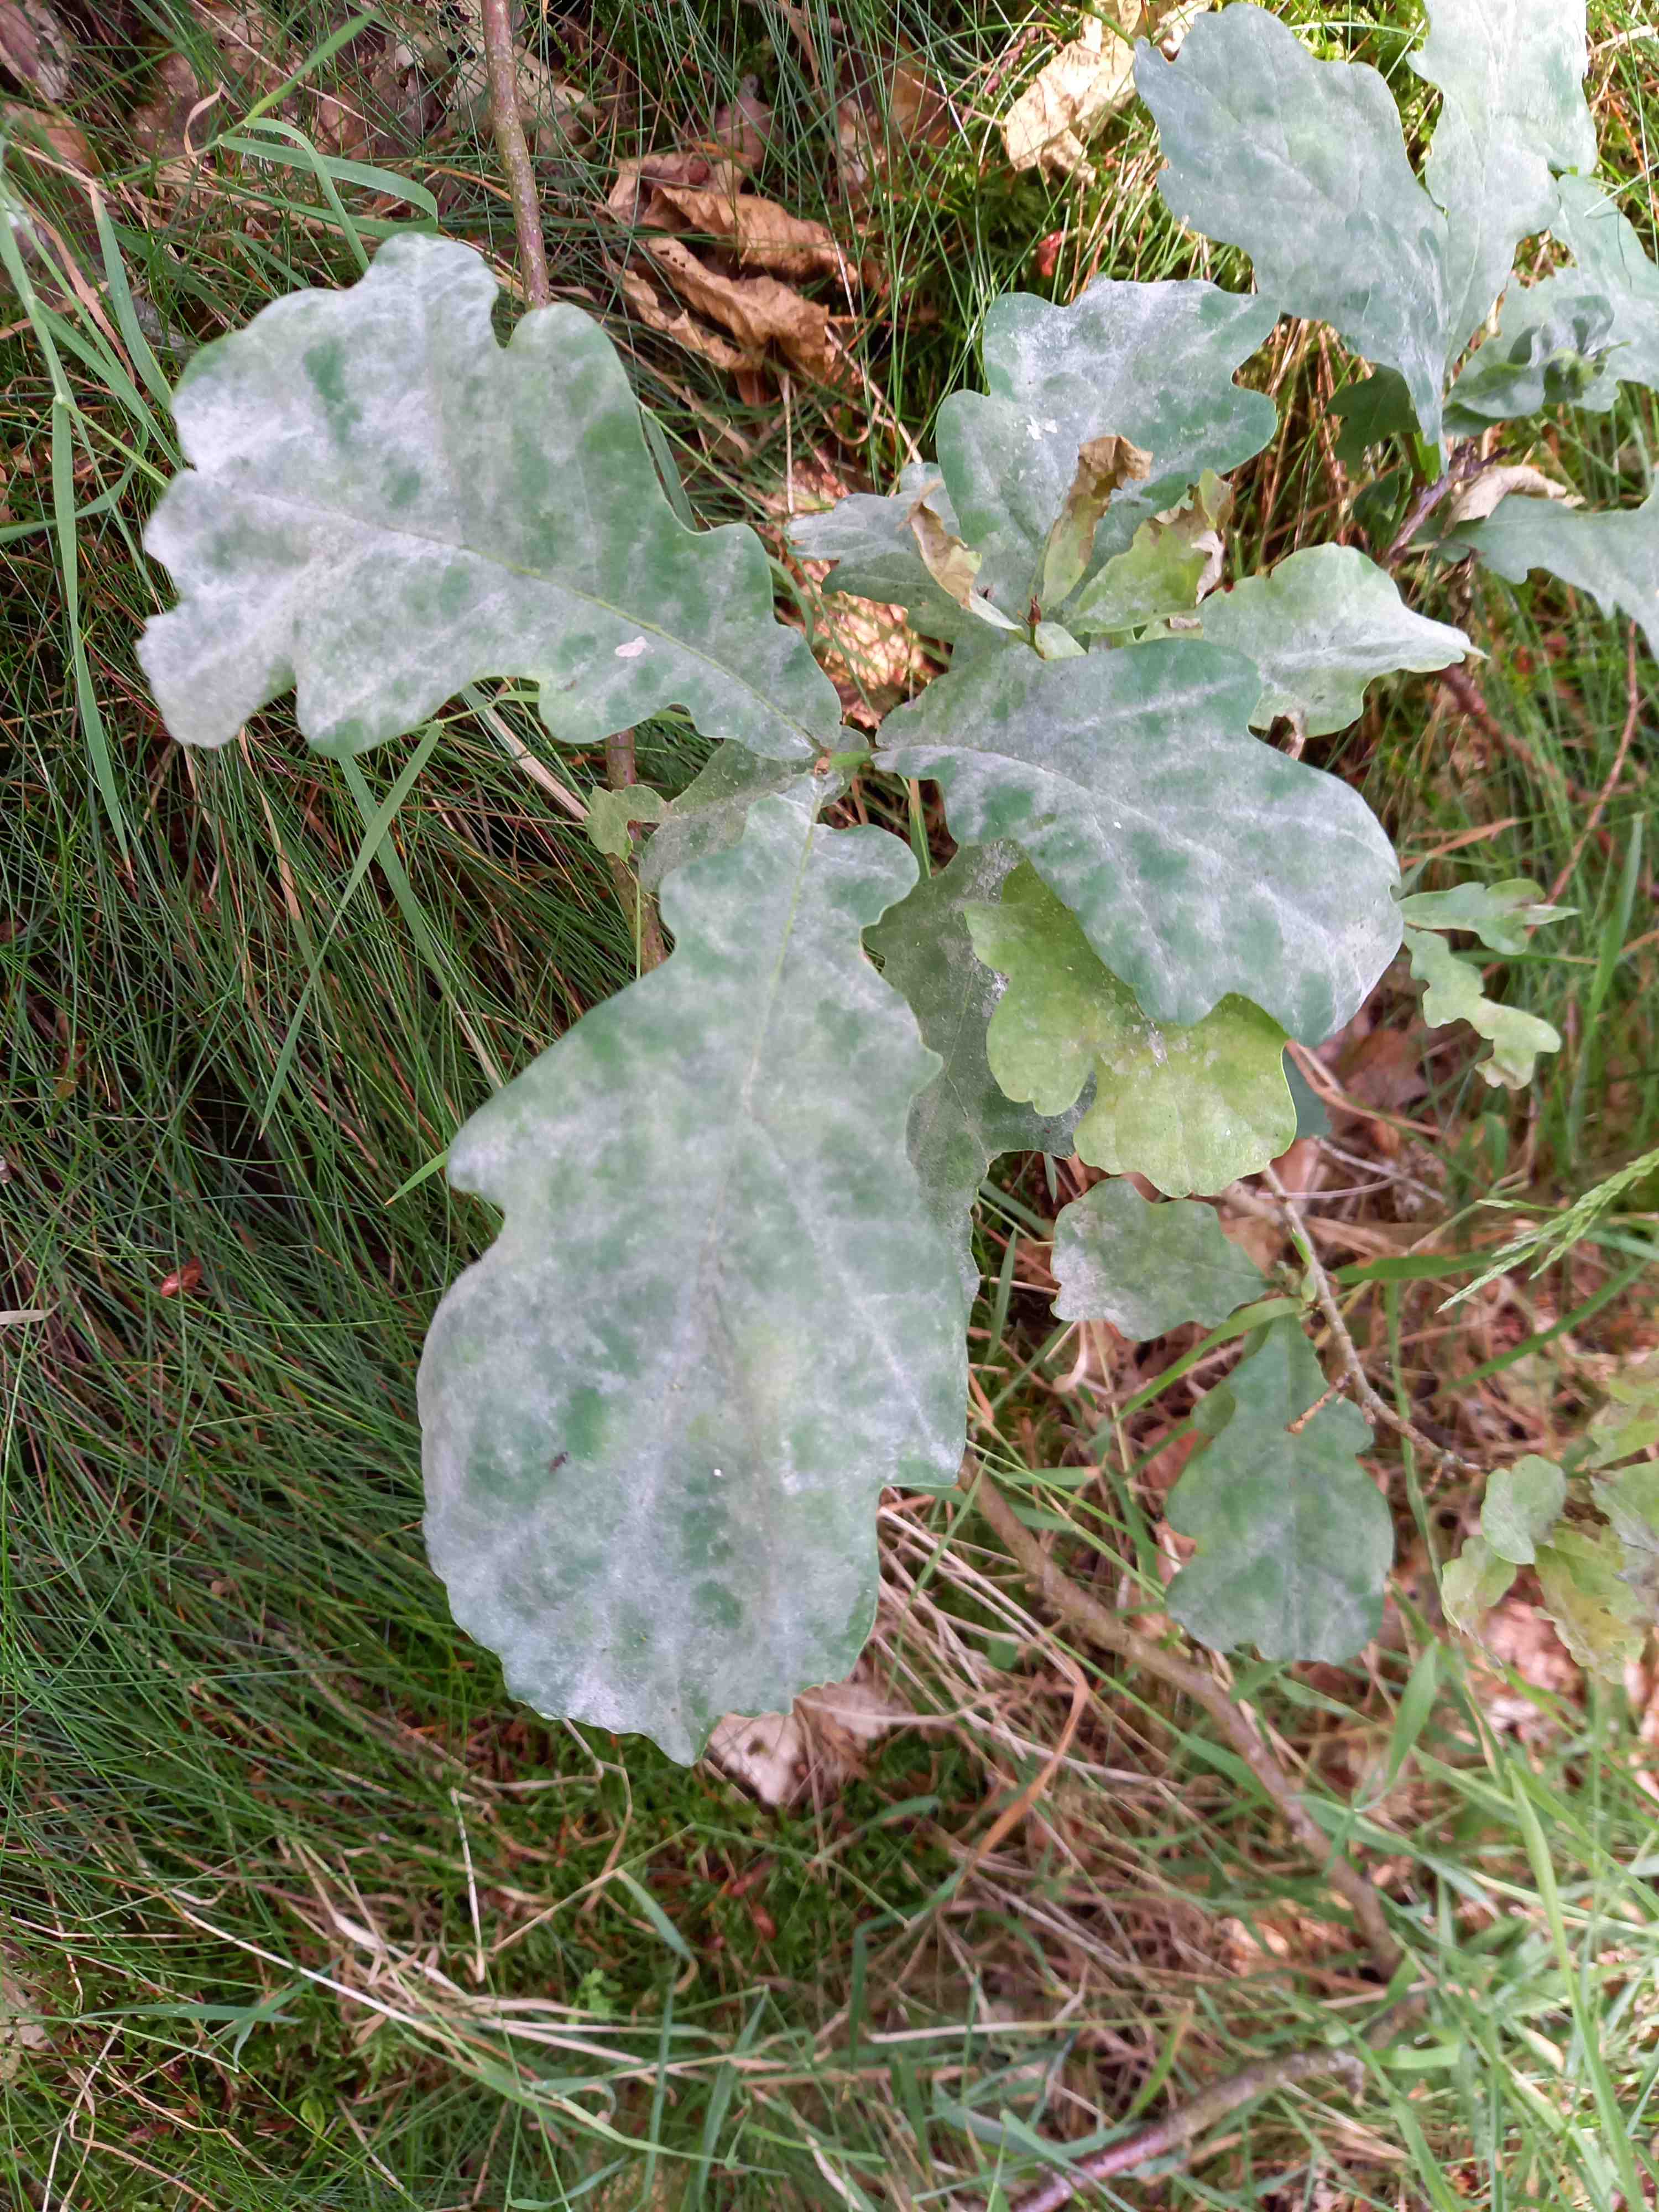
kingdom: Fungi
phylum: Ascomycota
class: Leotiomycetes
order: Helotiales
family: Erysiphaceae
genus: Erysiphe
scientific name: Erysiphe alphitoides
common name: ege-meldug
